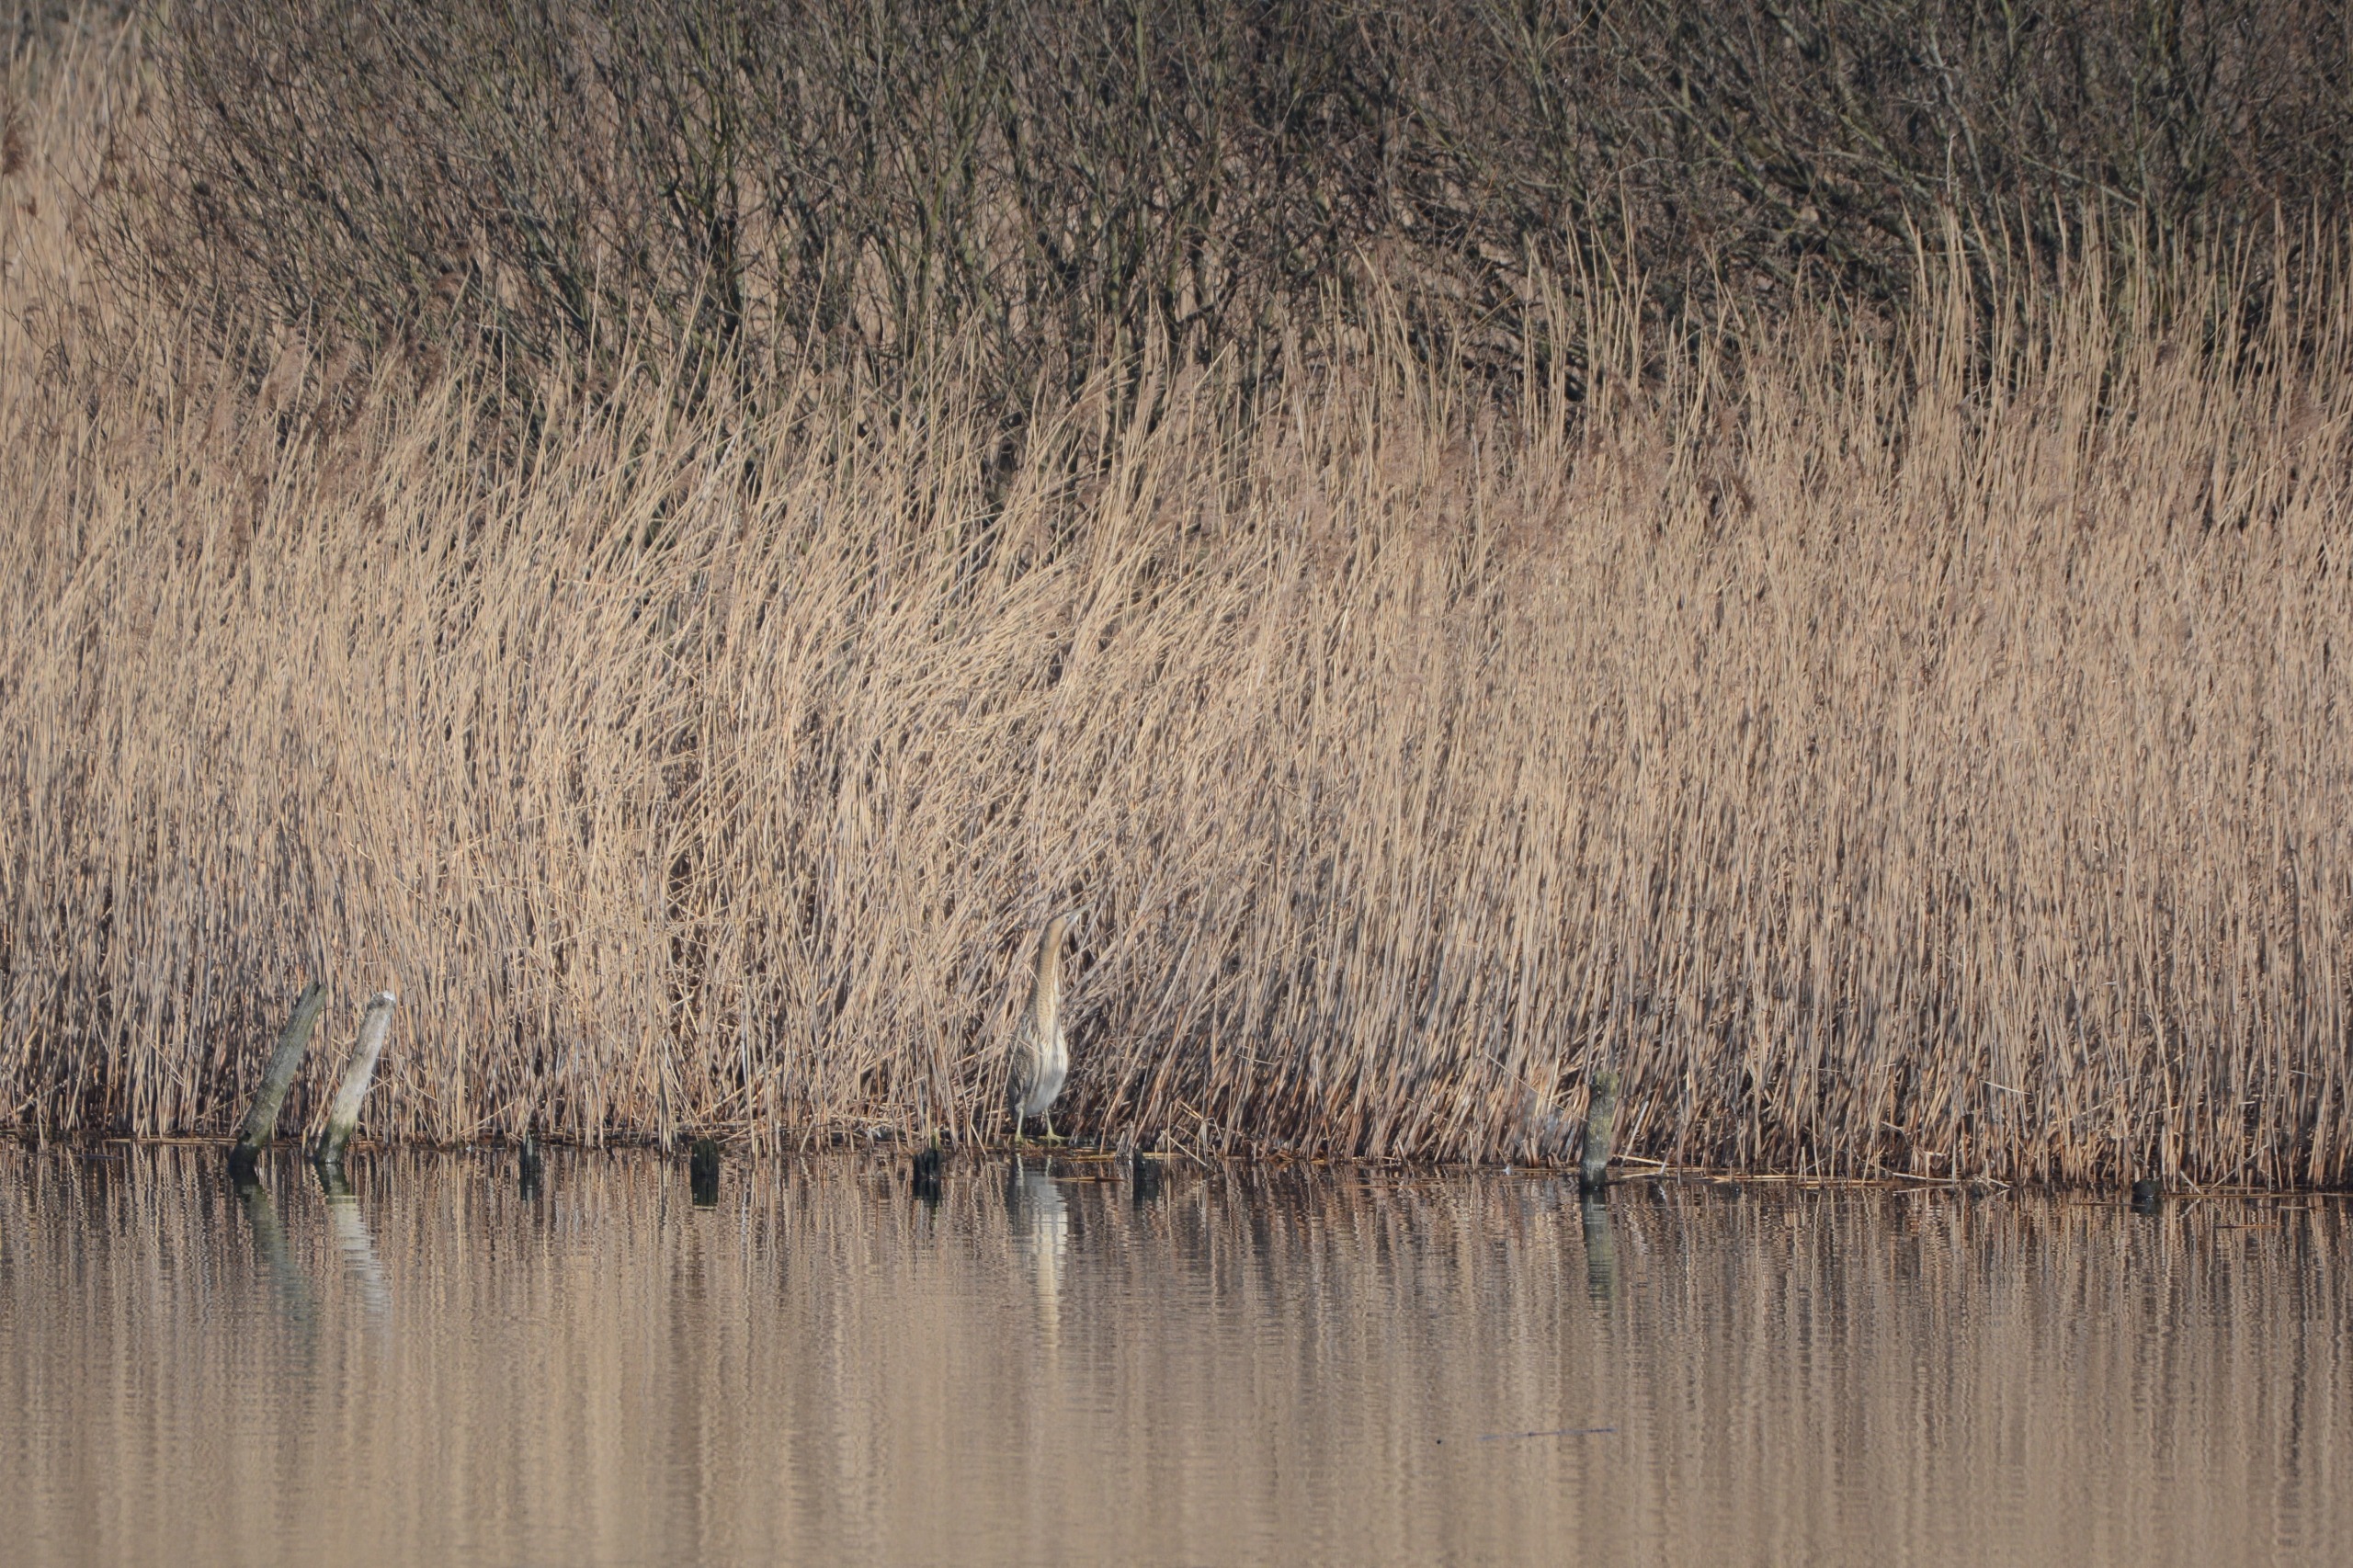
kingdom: Animalia
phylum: Chordata
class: Aves
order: Pelecaniformes
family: Ardeidae
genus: Botaurus
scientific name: Botaurus stellaris
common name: Rørdrum
